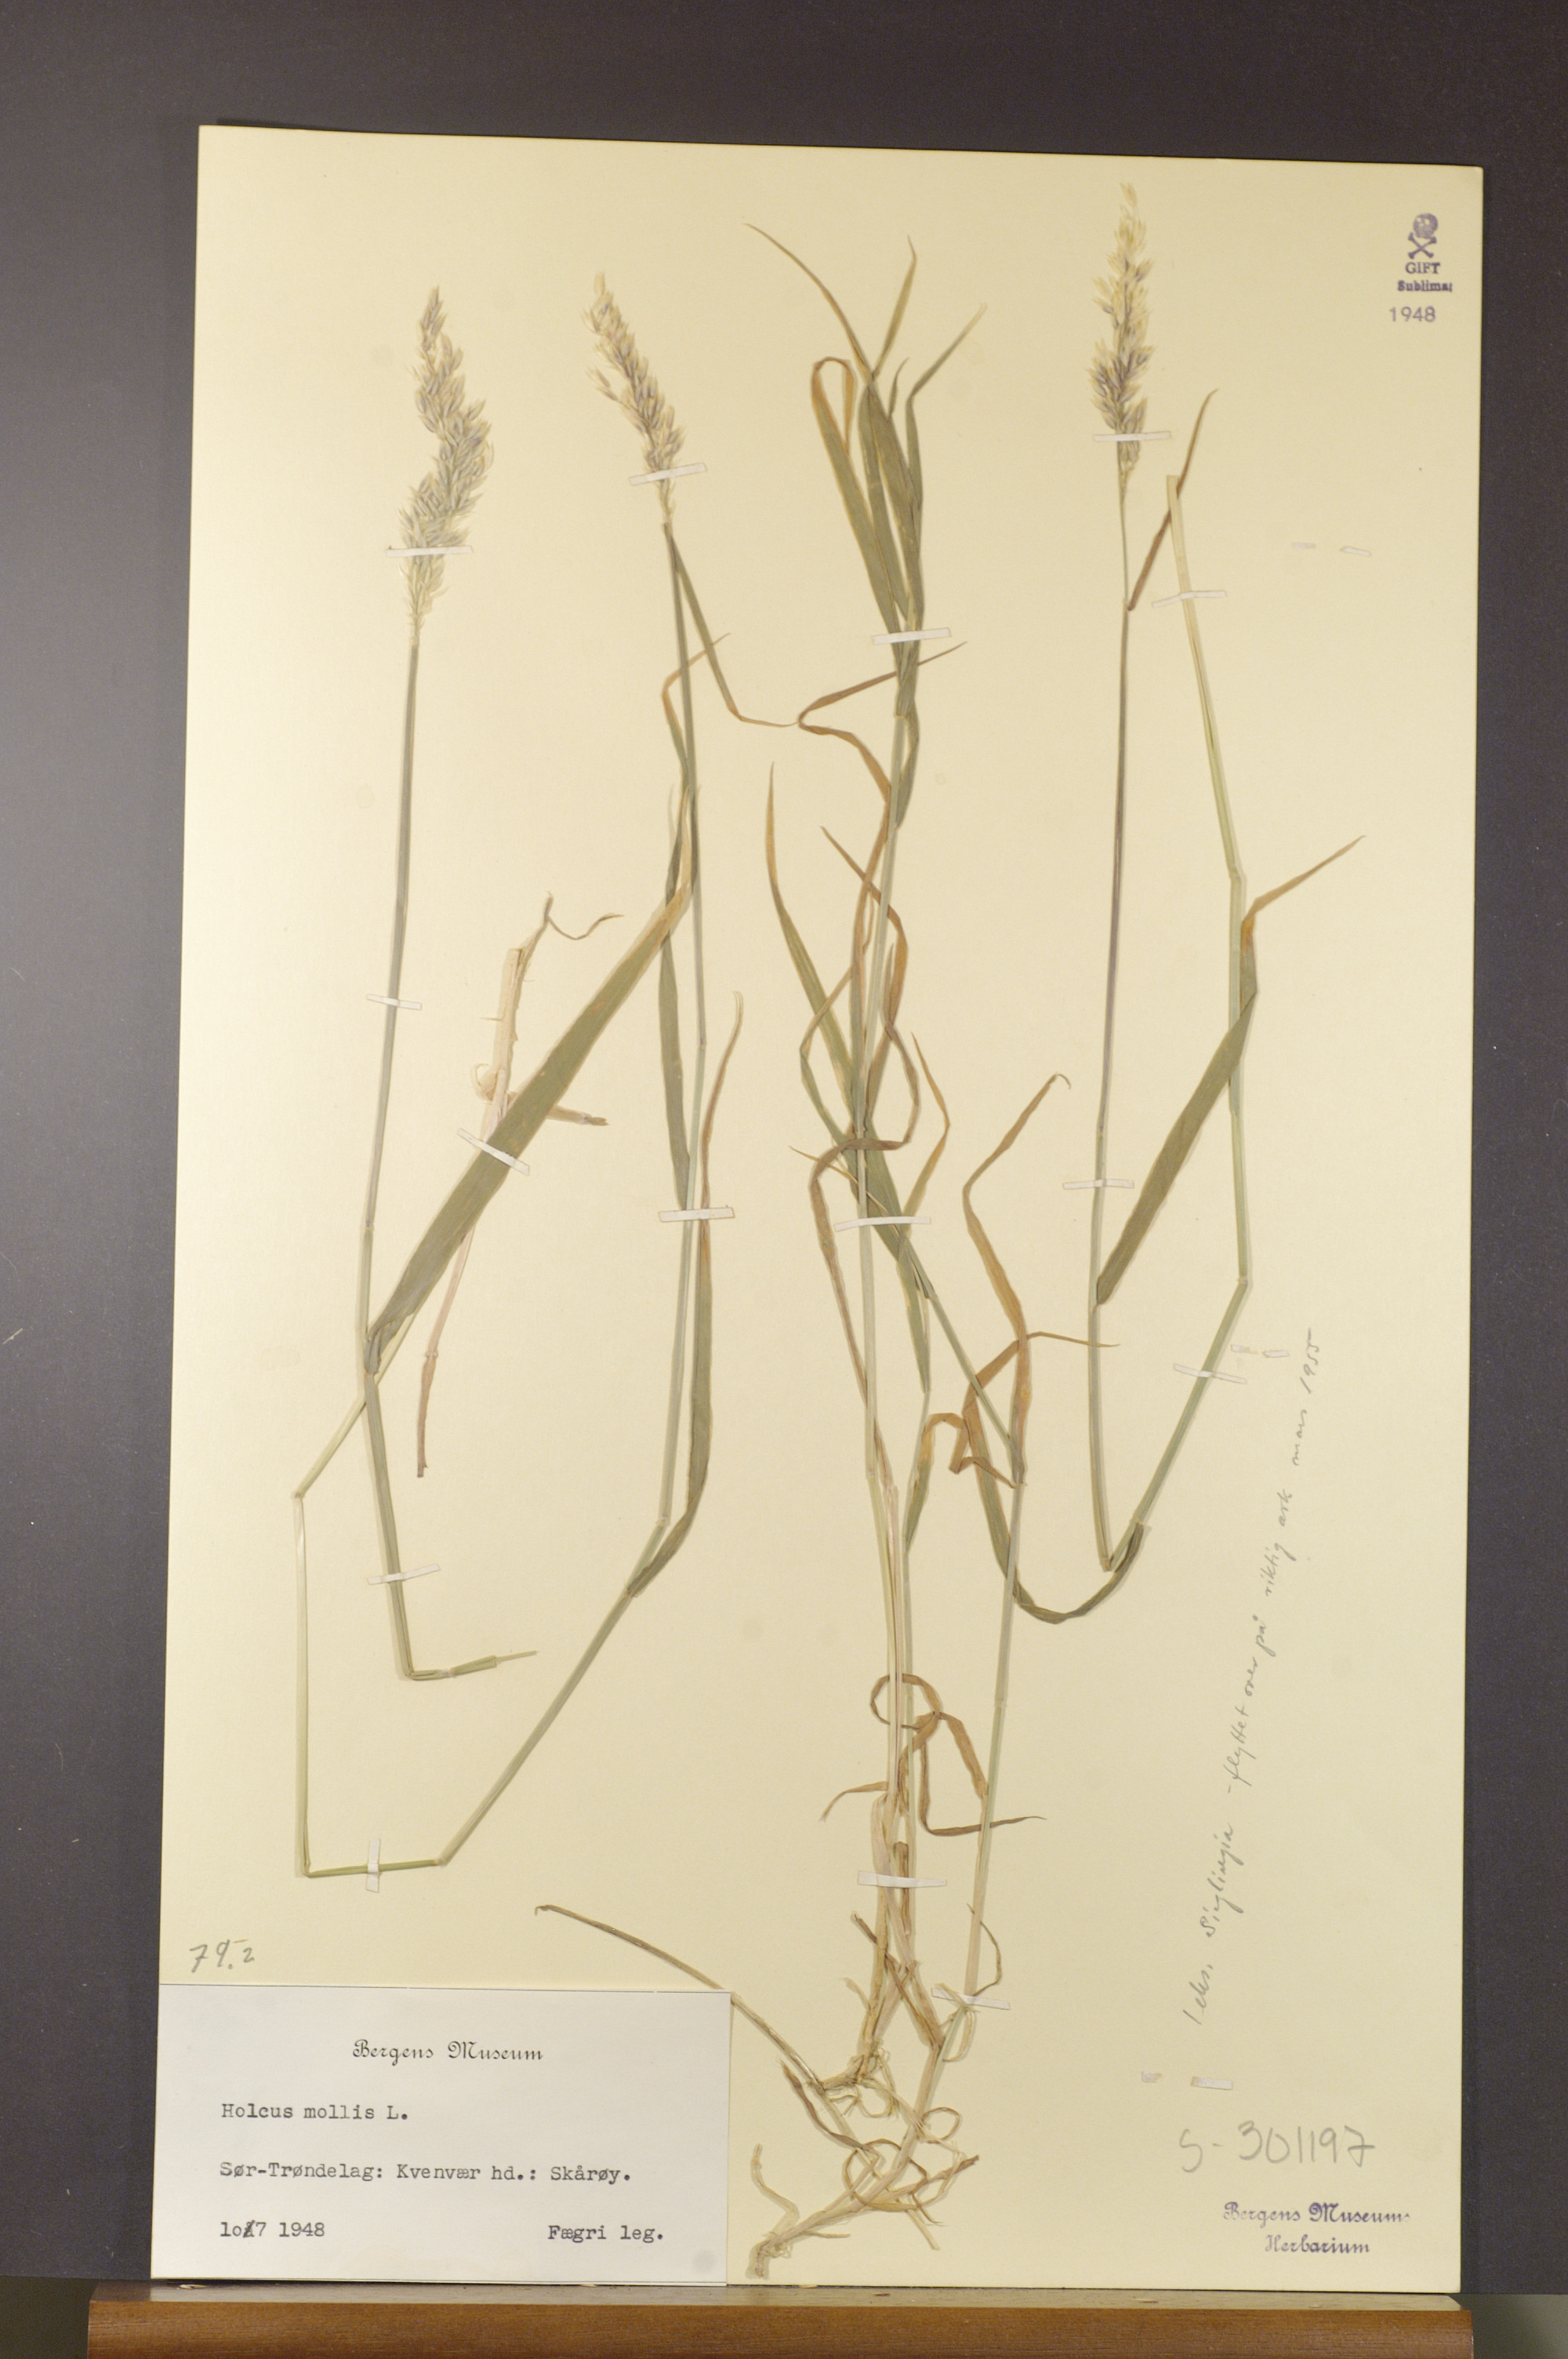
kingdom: Plantae
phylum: Tracheophyta
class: Liliopsida
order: Poales
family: Poaceae
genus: Holcus
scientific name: Holcus mollis
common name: Creeping velvetgrass
